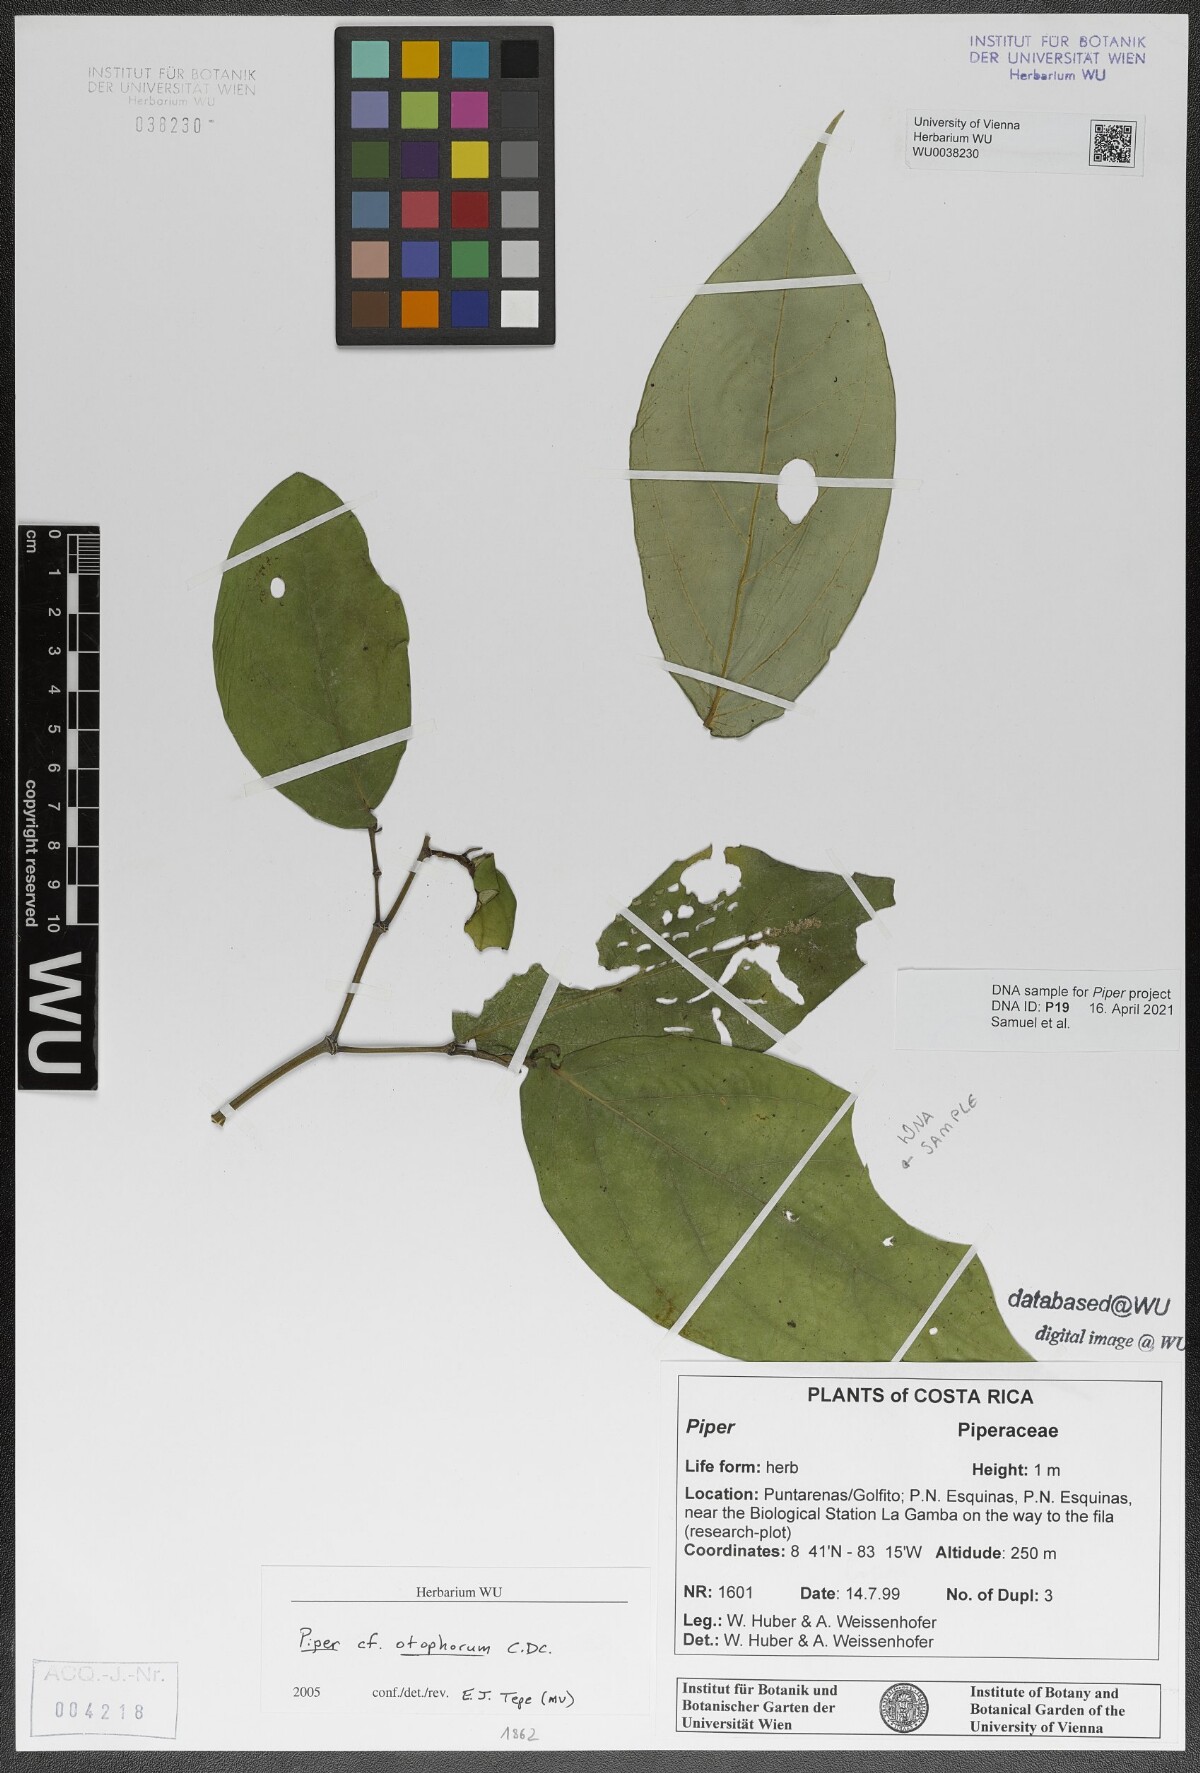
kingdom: Plantae
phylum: Tracheophyta
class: Magnoliopsida
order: Piperales
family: Piperaceae
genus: Piper
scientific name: Piper otophorum
